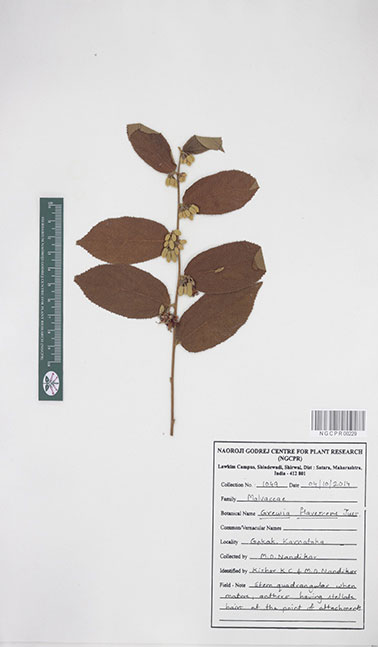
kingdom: Plantae
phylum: Tracheophyta
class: Magnoliopsida
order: Malvales
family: Malvaceae
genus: Grewia
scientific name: Grewia flavescens
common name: Sandpaper raisin
